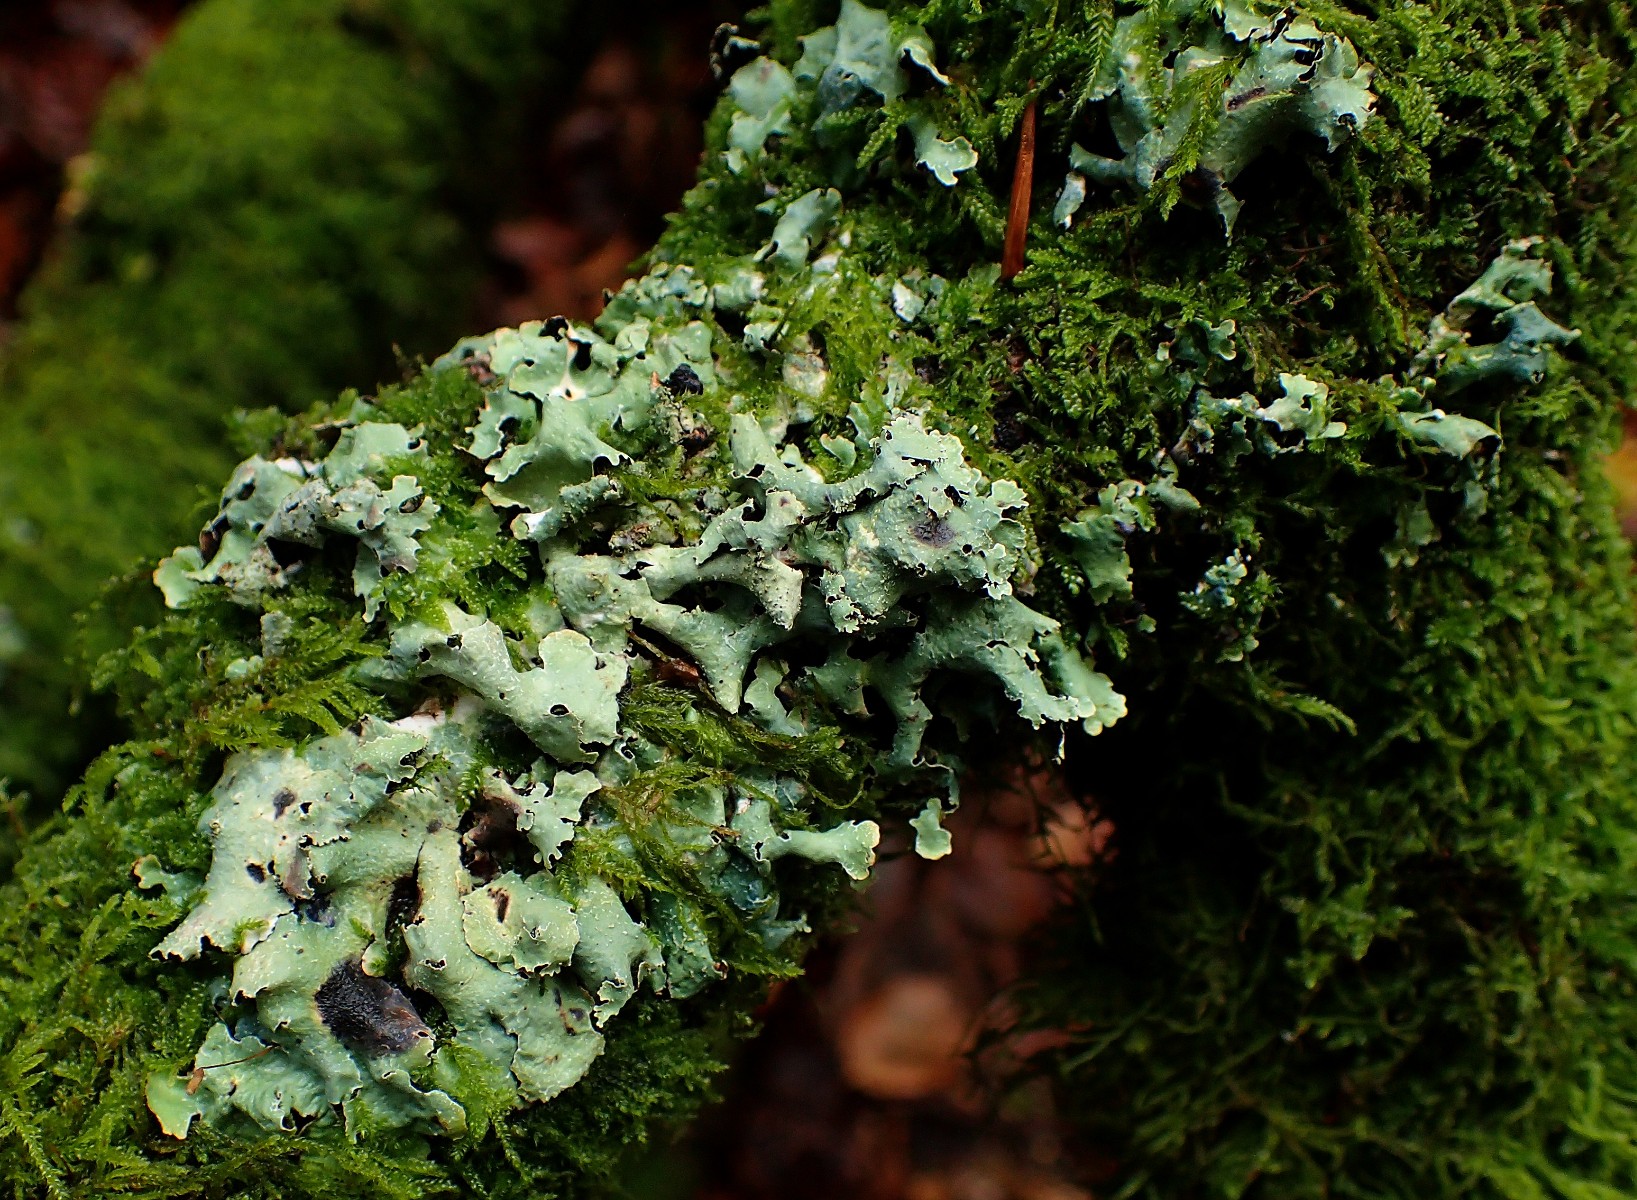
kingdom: Fungi
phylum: Ascomycota
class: Lecanoromycetes
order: Lecanorales
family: Parmeliaceae
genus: Parmelia
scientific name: Parmelia submontana
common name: langlobet skållav
